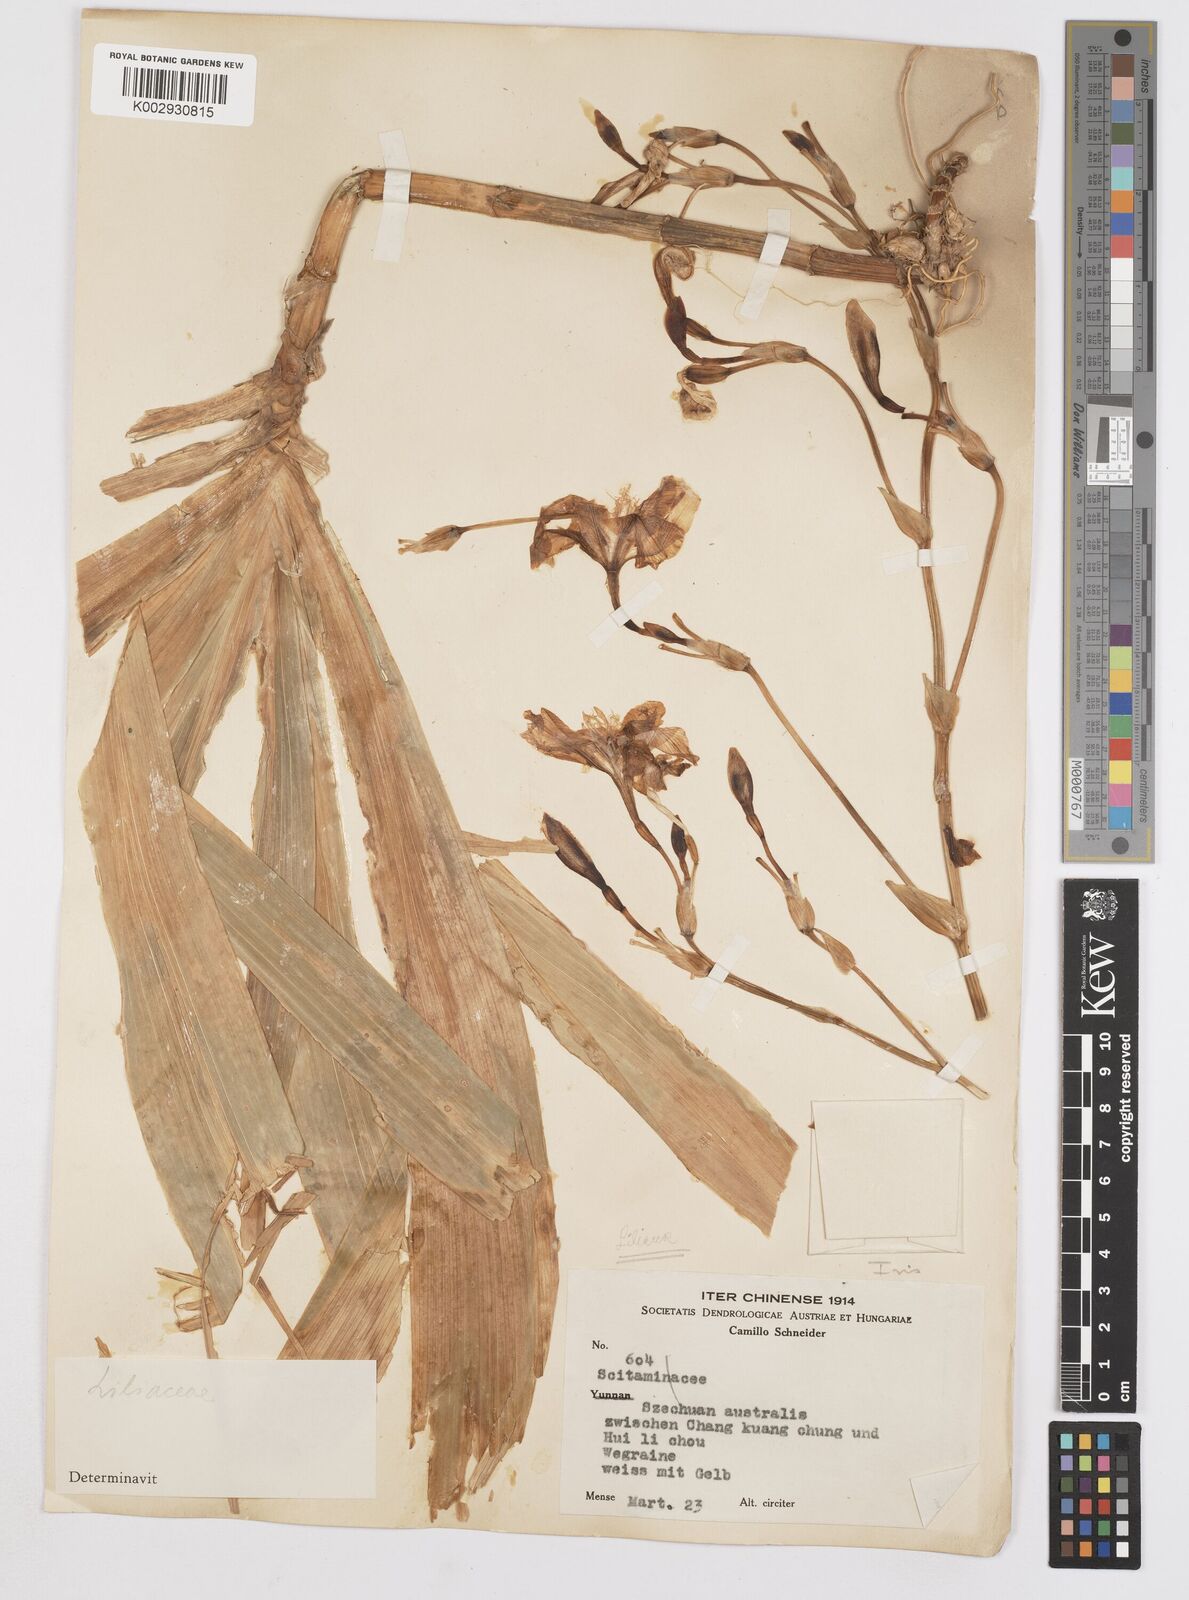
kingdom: Plantae
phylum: Tracheophyta
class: Liliopsida
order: Asparagales
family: Iridaceae
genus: Iris
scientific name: Iris
